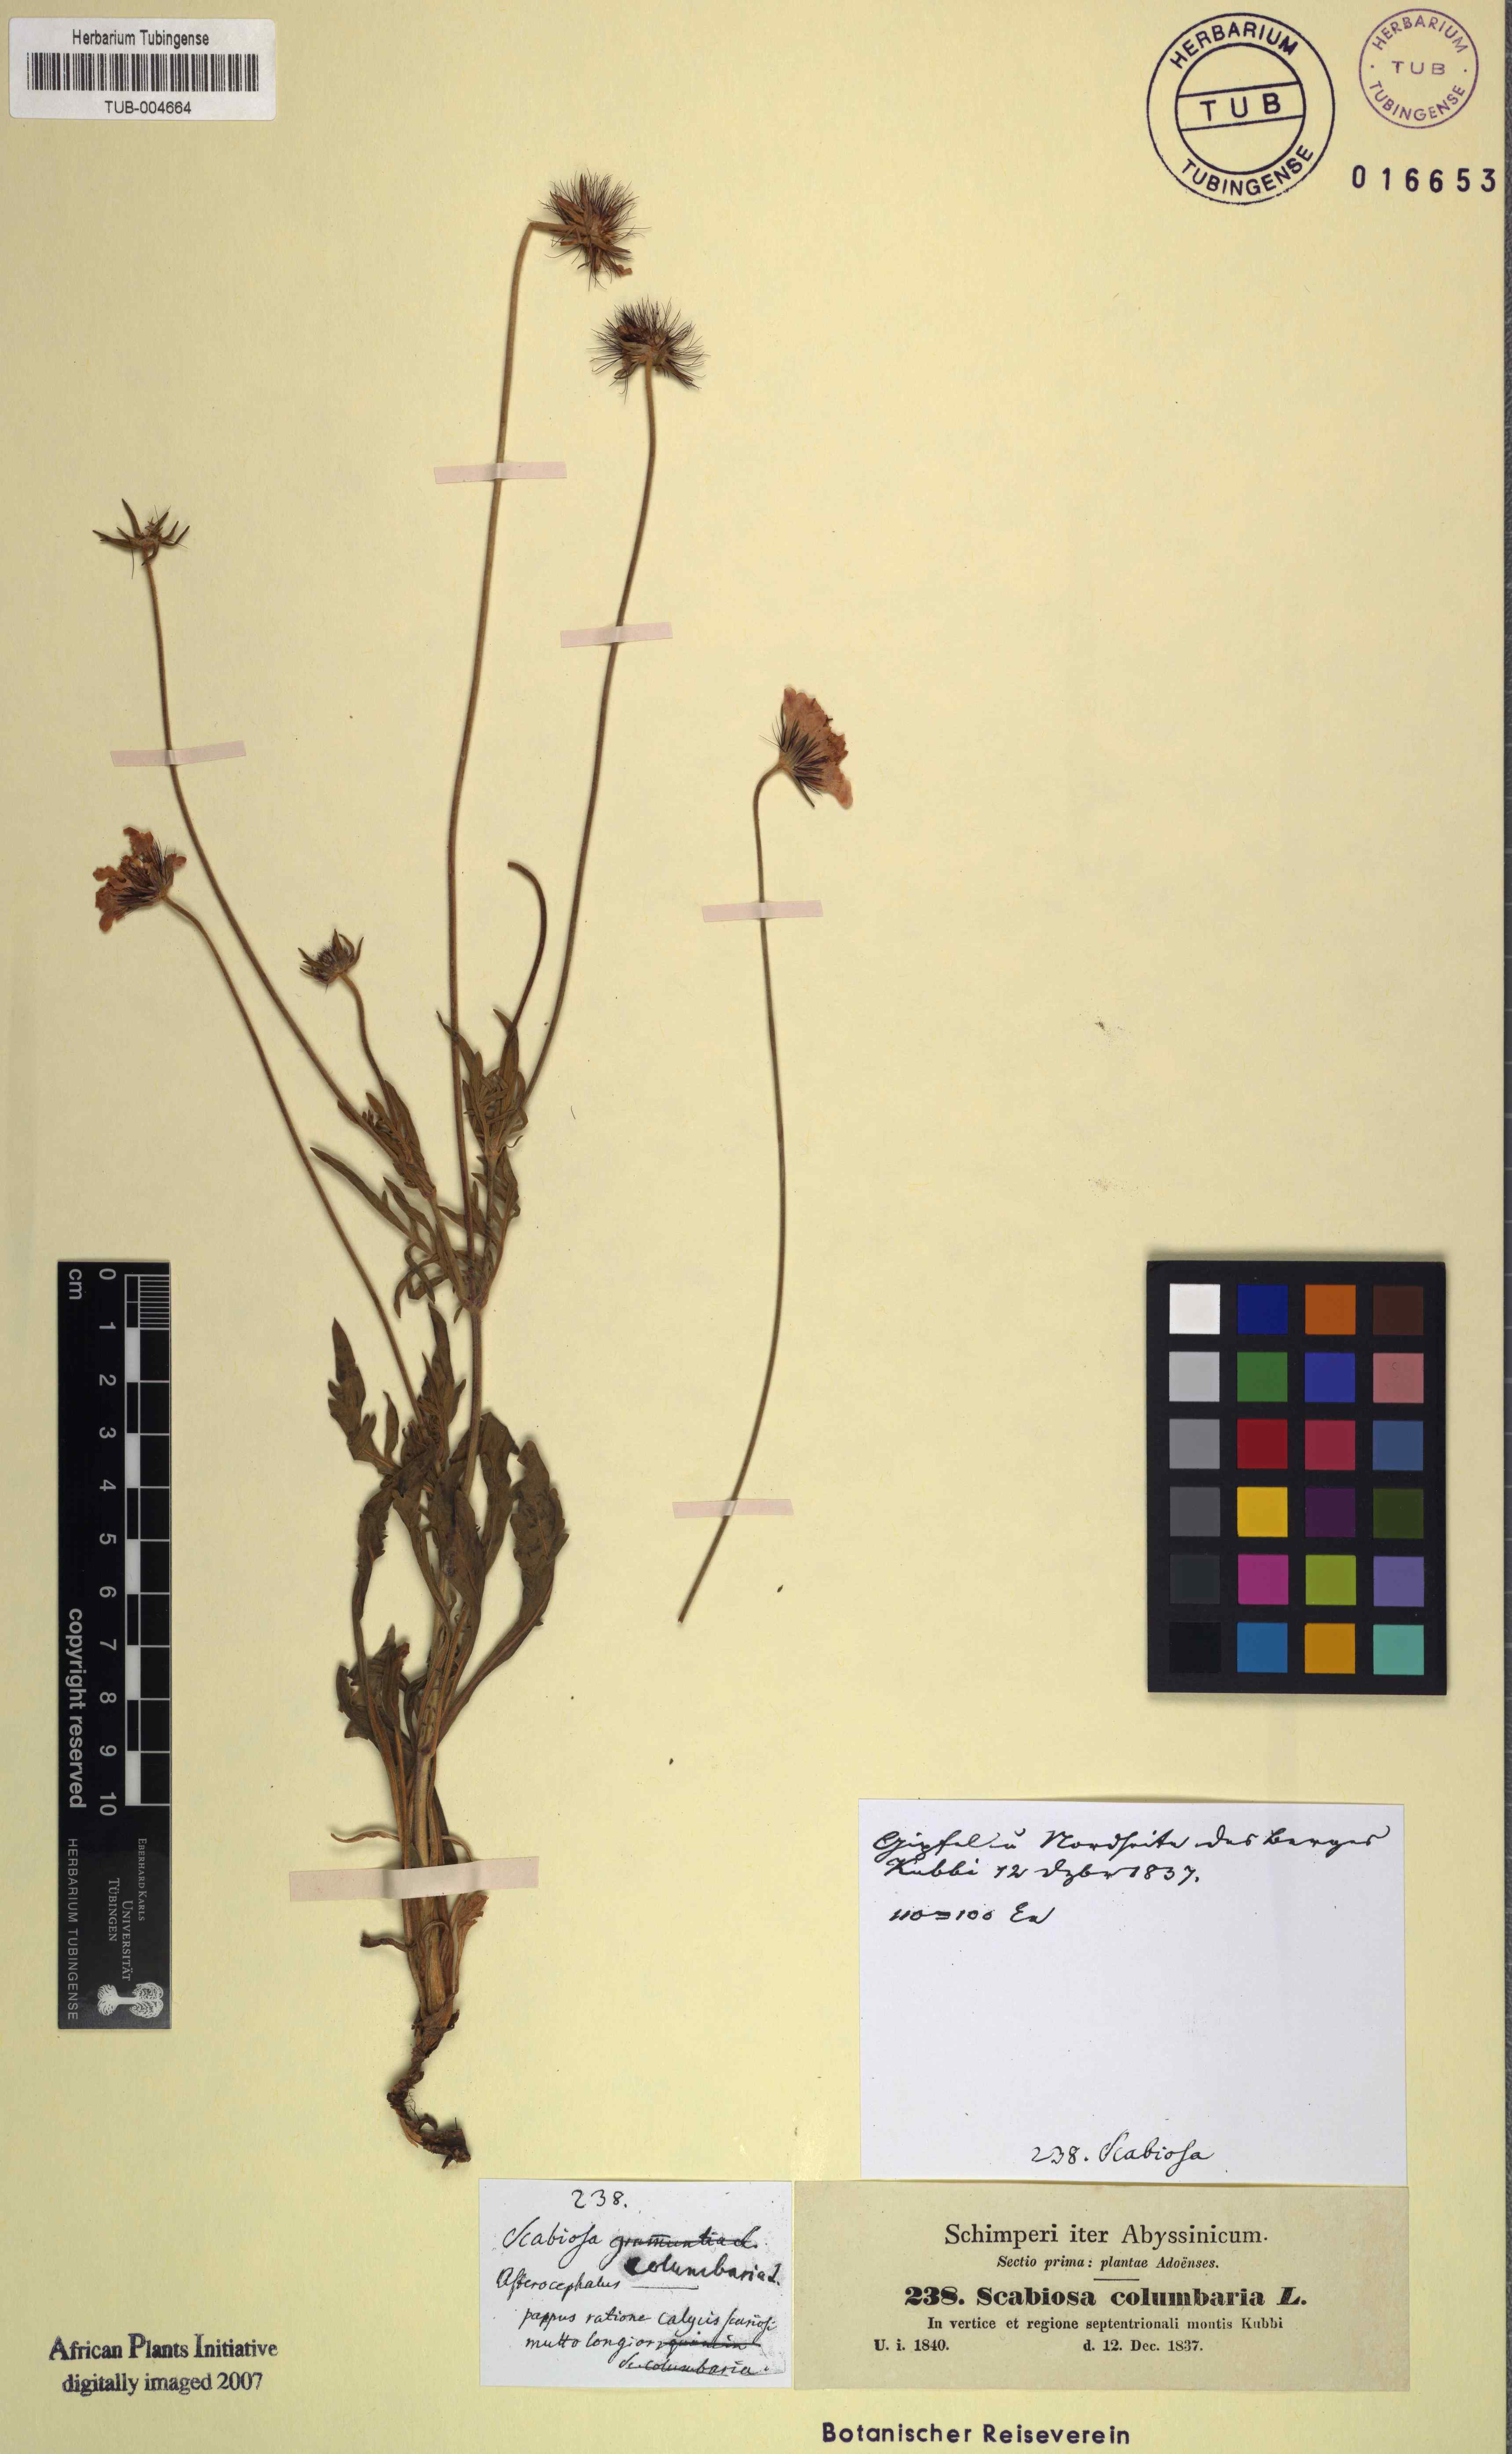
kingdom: Plantae
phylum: Tracheophyta
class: Magnoliopsida
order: Dipsacales
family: Caprifoliaceae
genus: Scabiosa
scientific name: Scabiosa columbaria
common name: Small scabious
